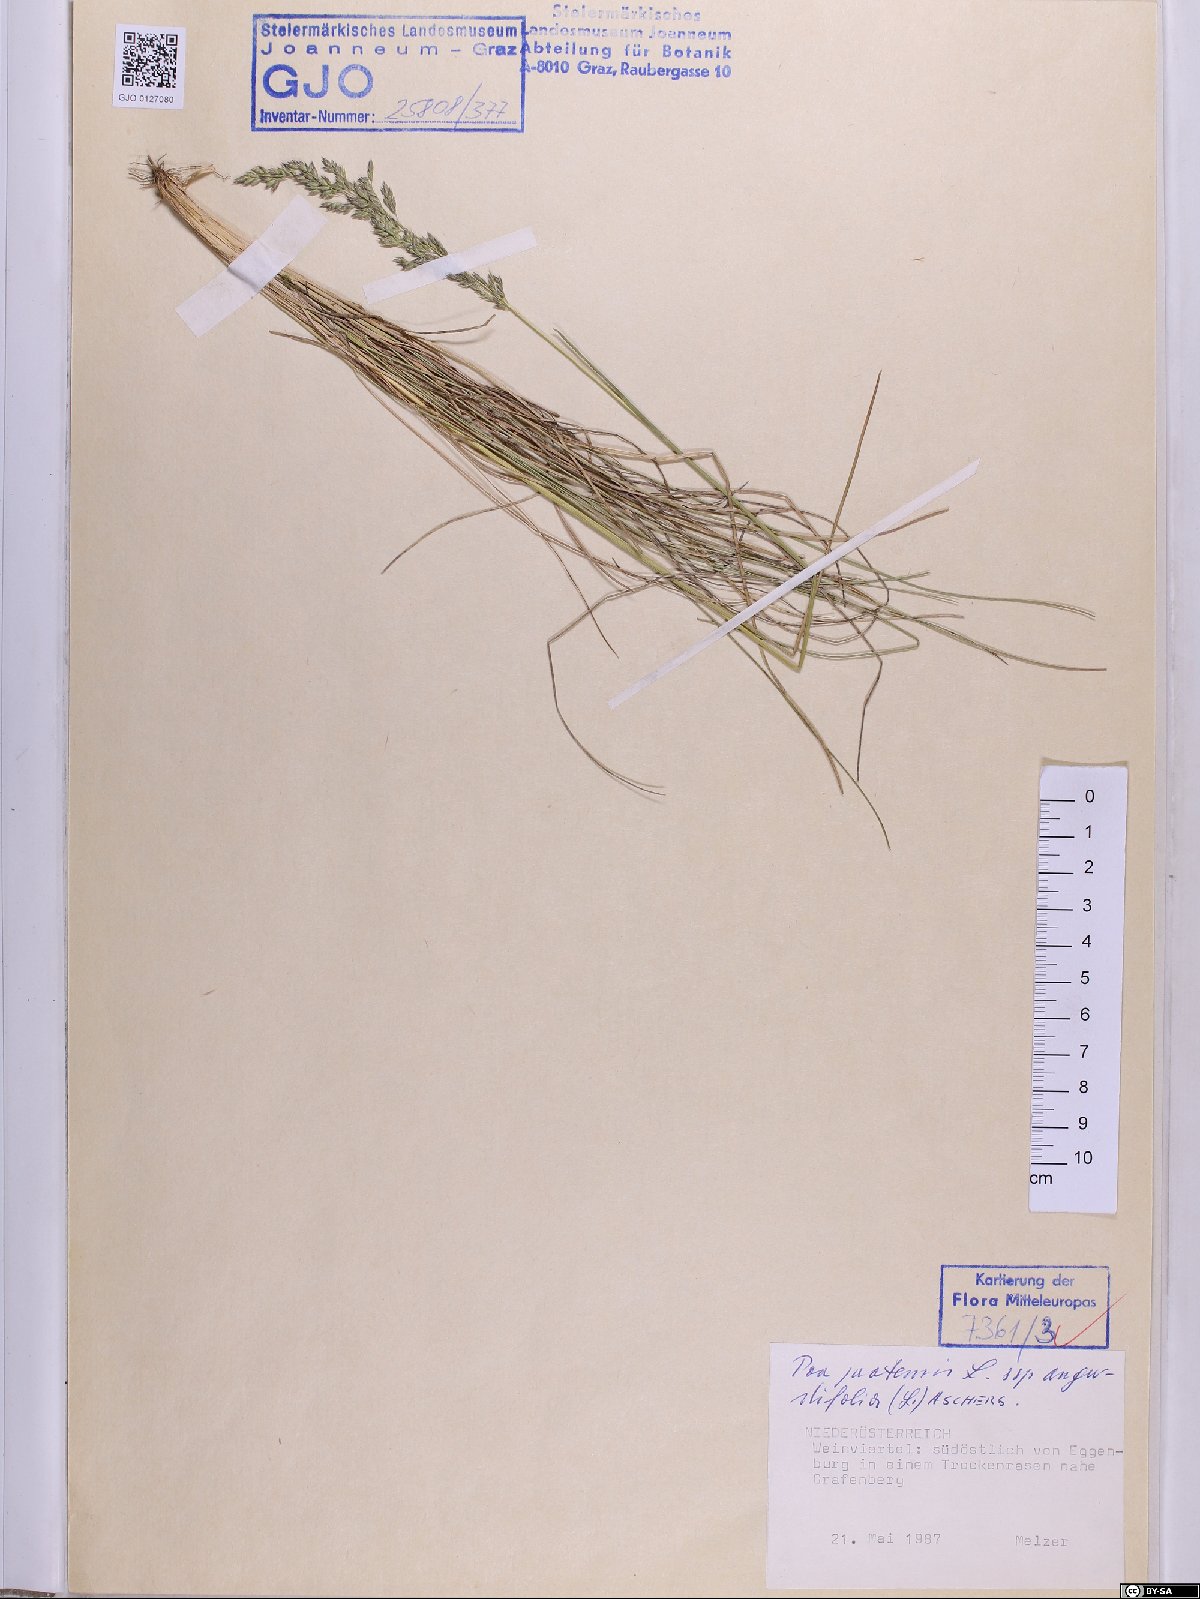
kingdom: Plantae
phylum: Tracheophyta
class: Liliopsida
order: Poales
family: Poaceae
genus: Poa
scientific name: Poa angustifolia
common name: Narrow-leaved meadow-grass
